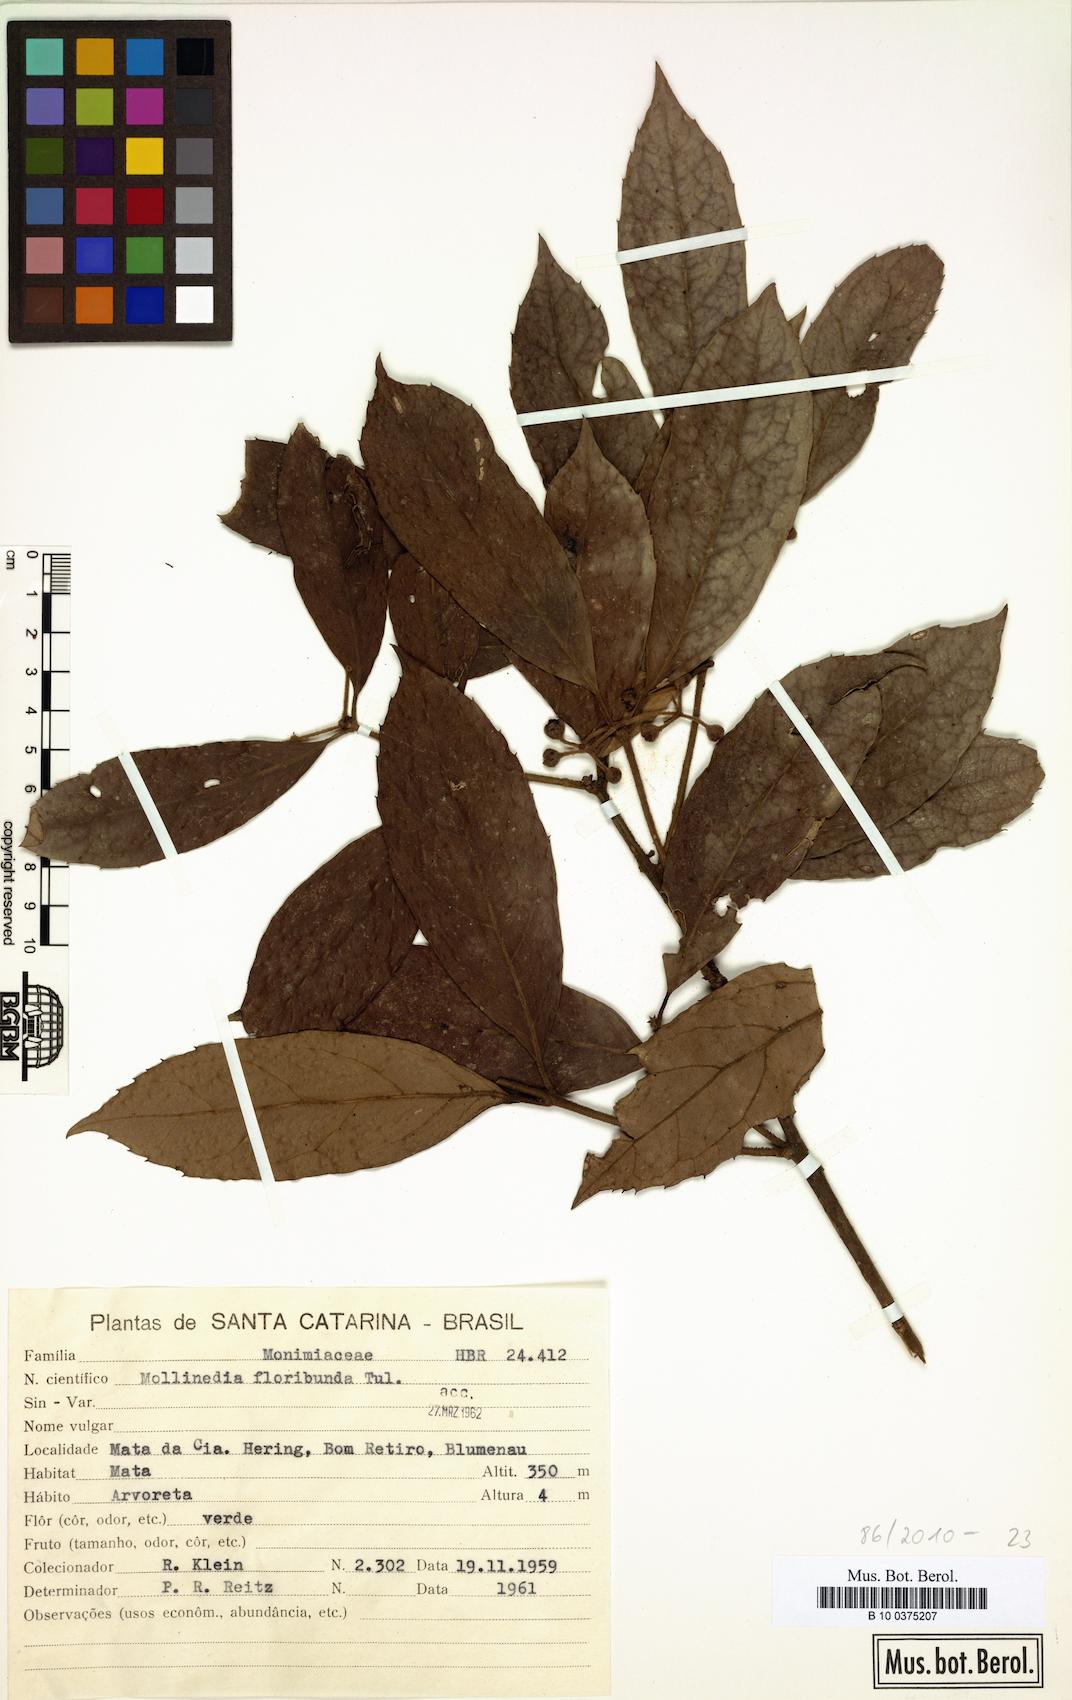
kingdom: Plantae
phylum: Tracheophyta
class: Magnoliopsida
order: Laurales
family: Monimiaceae
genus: Mollinedia
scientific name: Mollinedia umbellata
